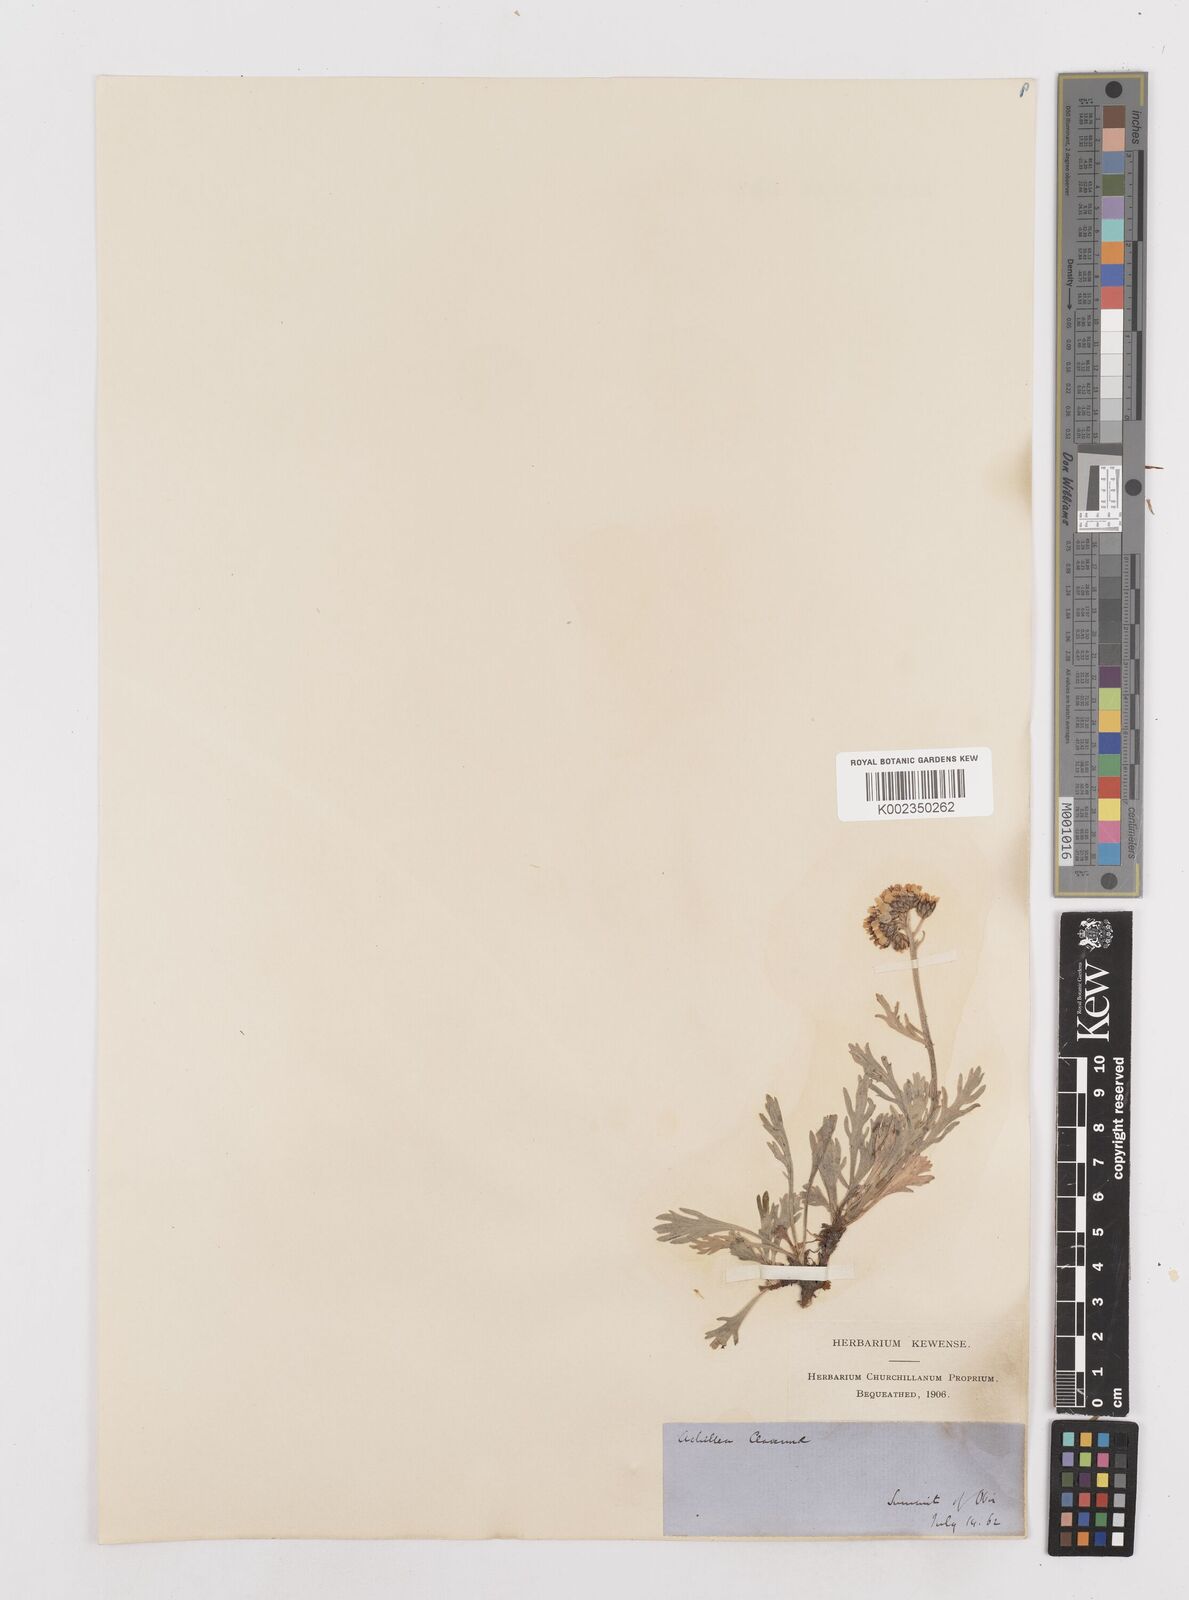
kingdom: Plantae
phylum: Tracheophyta
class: Magnoliopsida
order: Asterales
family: Asteraceae
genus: Achillea
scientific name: Achillea clavennae
